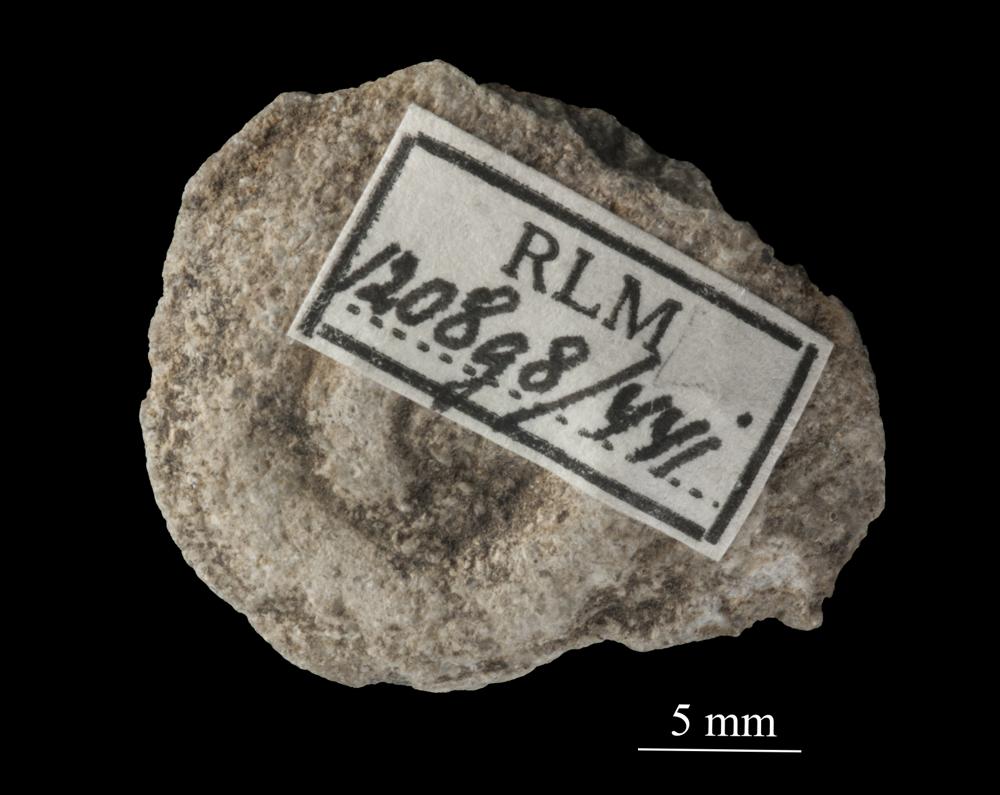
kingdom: Animalia
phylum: Mollusca
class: Cephalopoda
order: Goniatitida
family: Goniatitidae
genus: Goniatites
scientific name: Goniatites silurica
